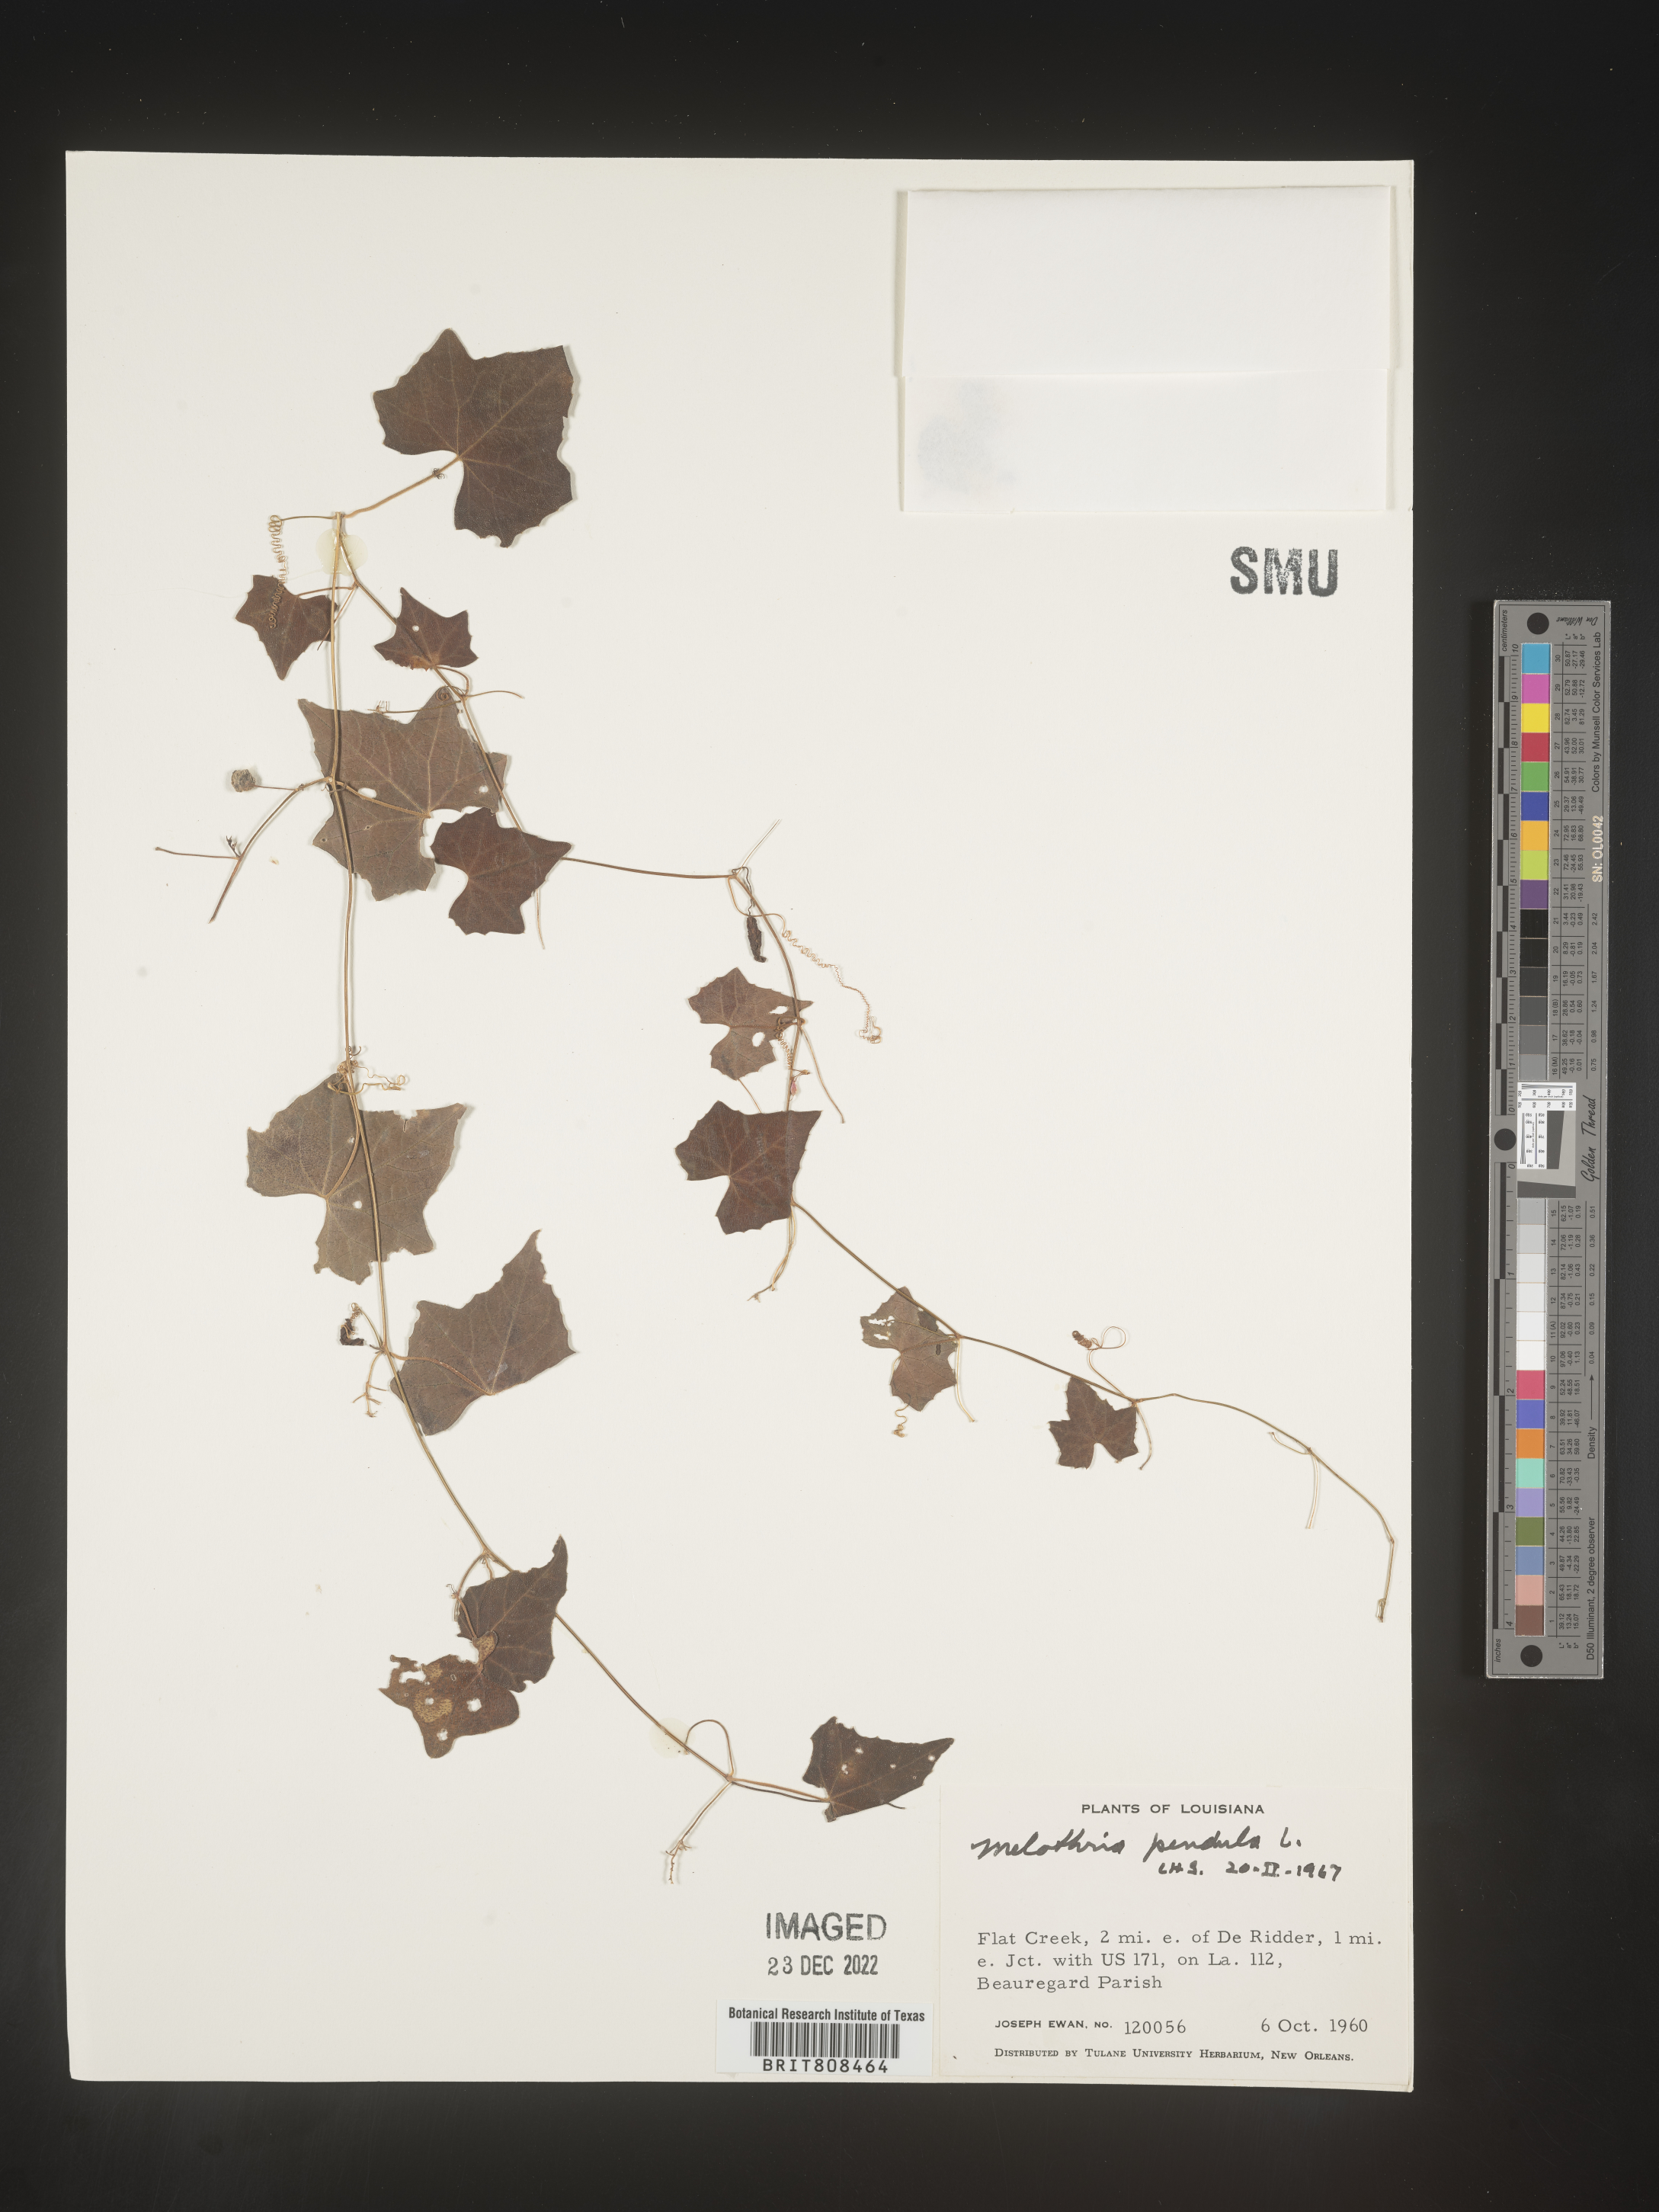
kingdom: Plantae
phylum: Tracheophyta
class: Magnoliopsida
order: Cucurbitales
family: Cucurbitaceae
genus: Melothria
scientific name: Melothria pendula
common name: Creeping-cucumber
